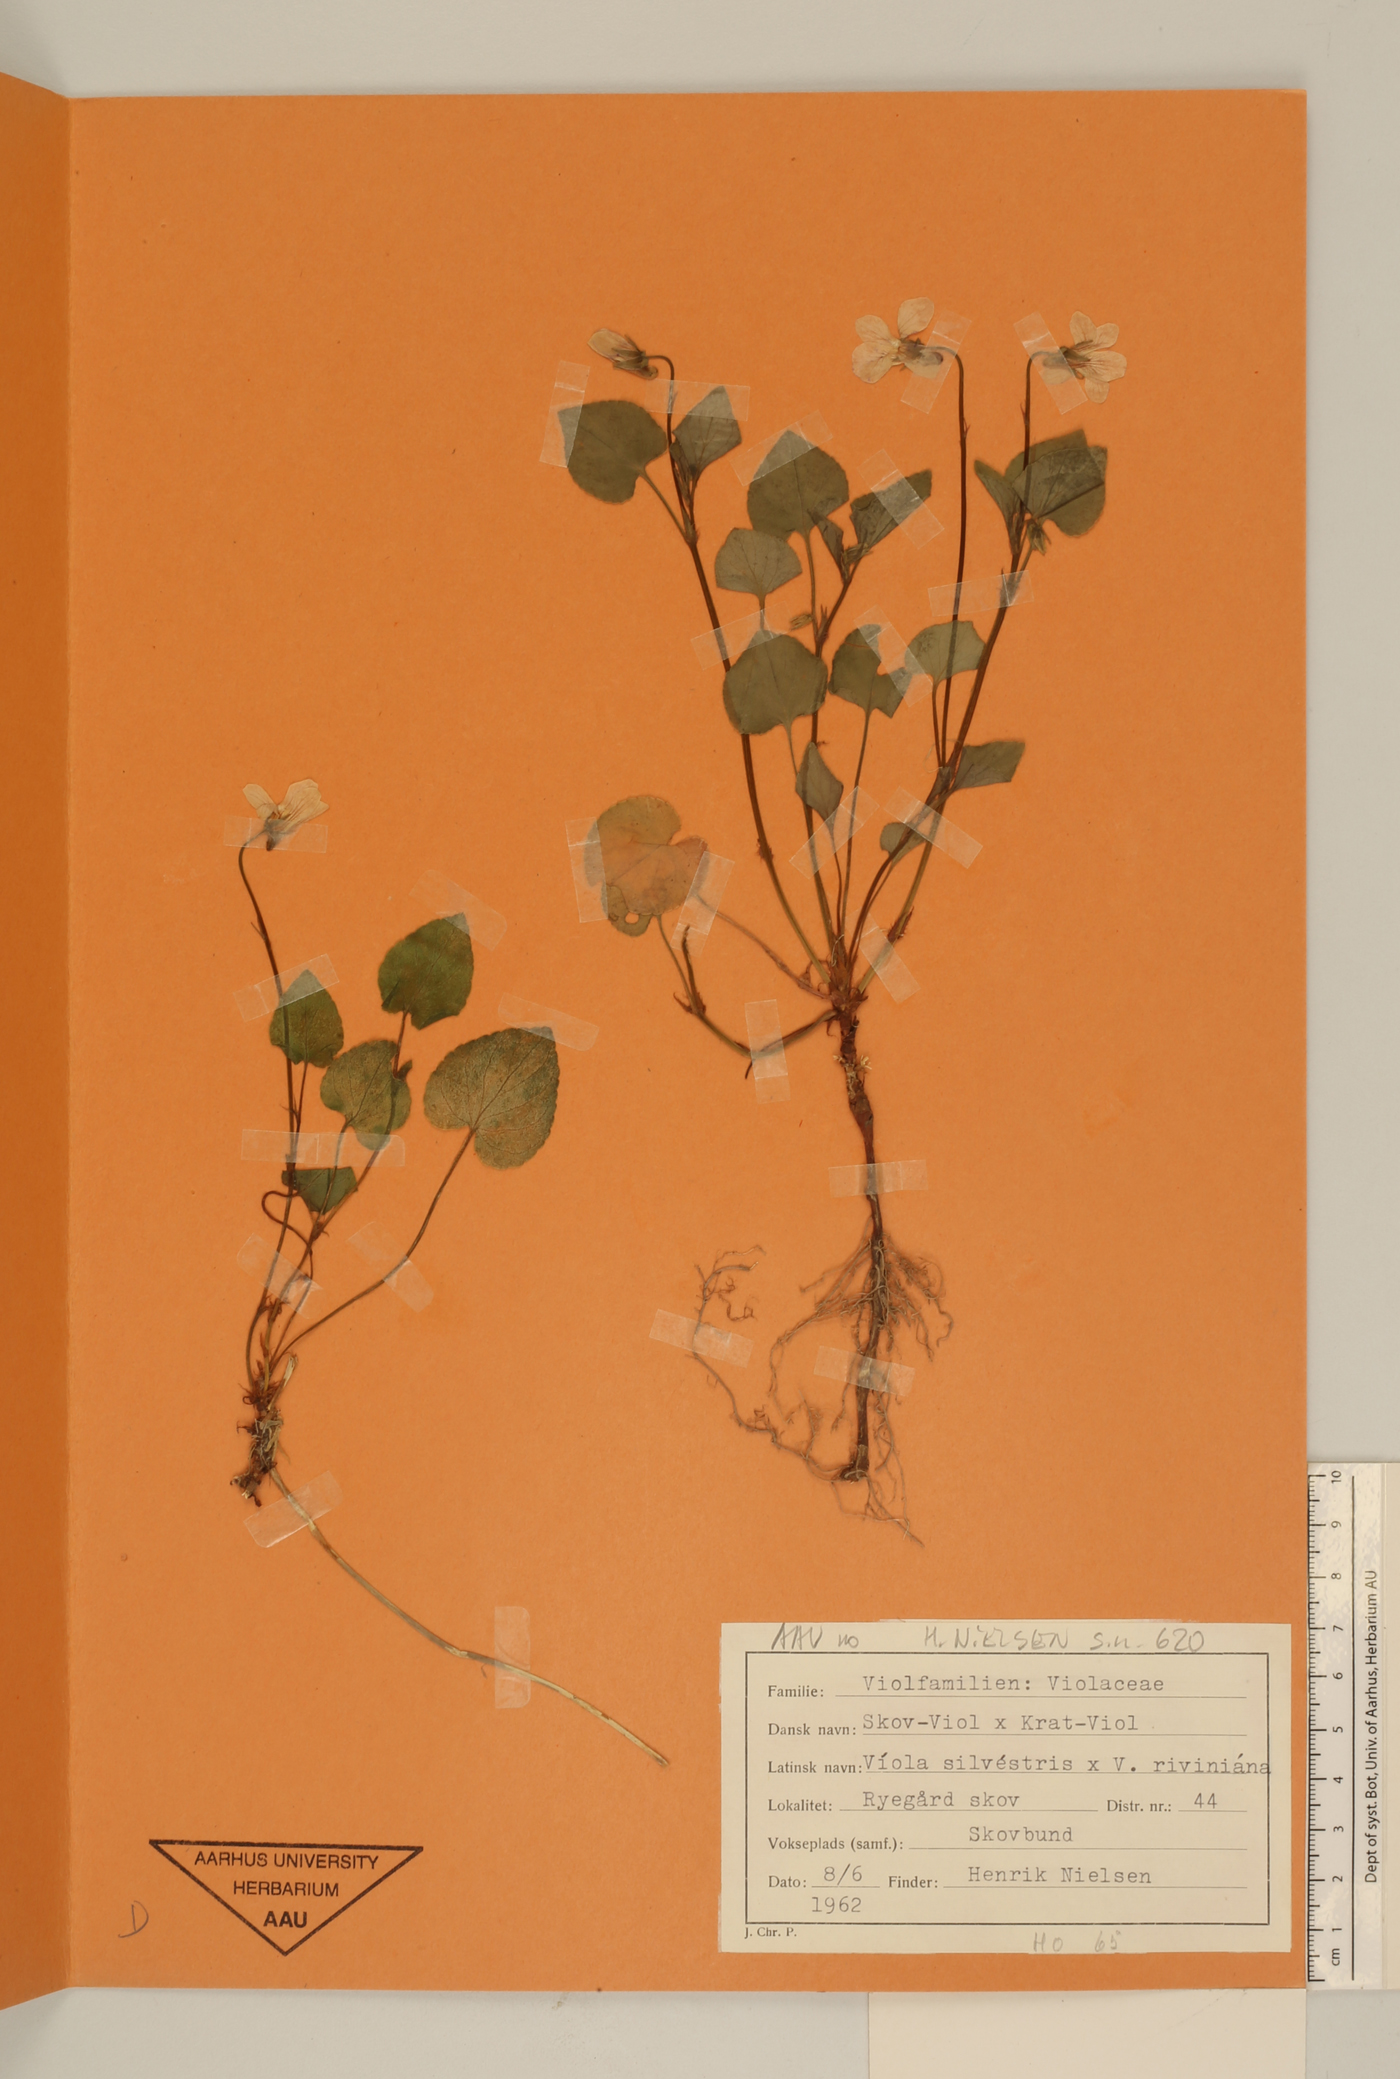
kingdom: Plantae
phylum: Tracheophyta
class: Magnoliopsida
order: Malpighiales
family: Violaceae
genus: Viola
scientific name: Viola
